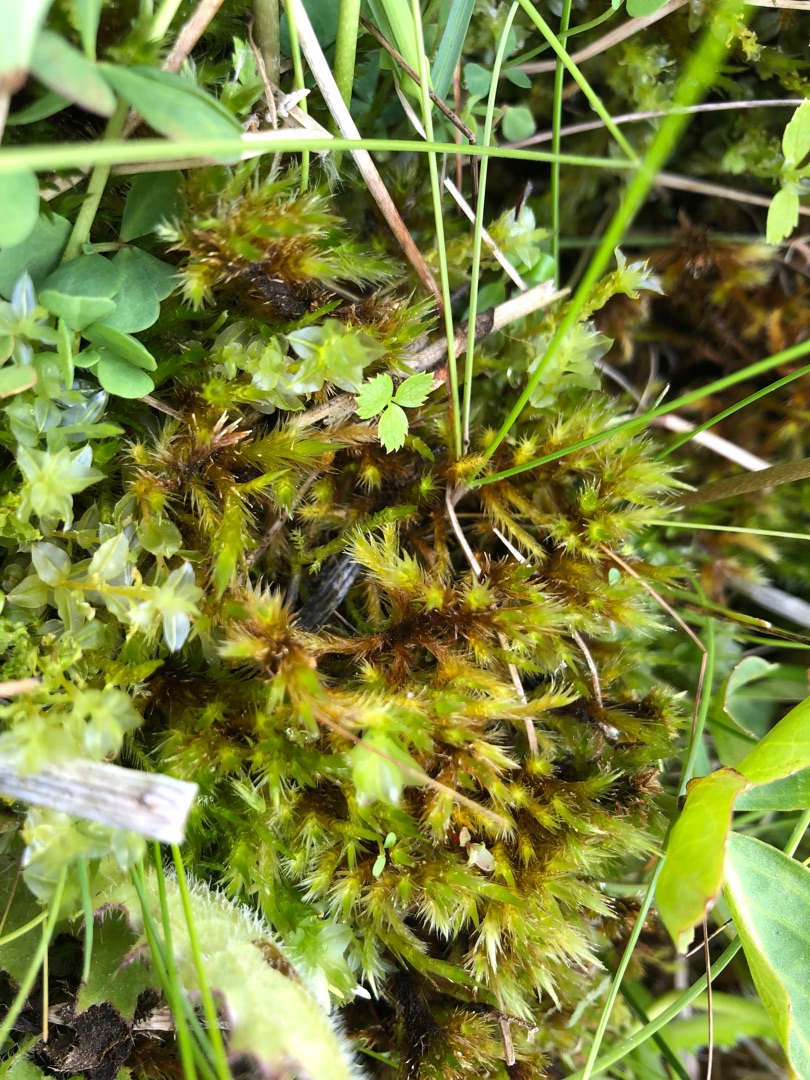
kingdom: Plantae
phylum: Bryophyta
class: Bryopsida
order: Hypnales
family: Amblystegiaceae
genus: Tomentypnum
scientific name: Tomentypnum nitens
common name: Glinsende kærmos
